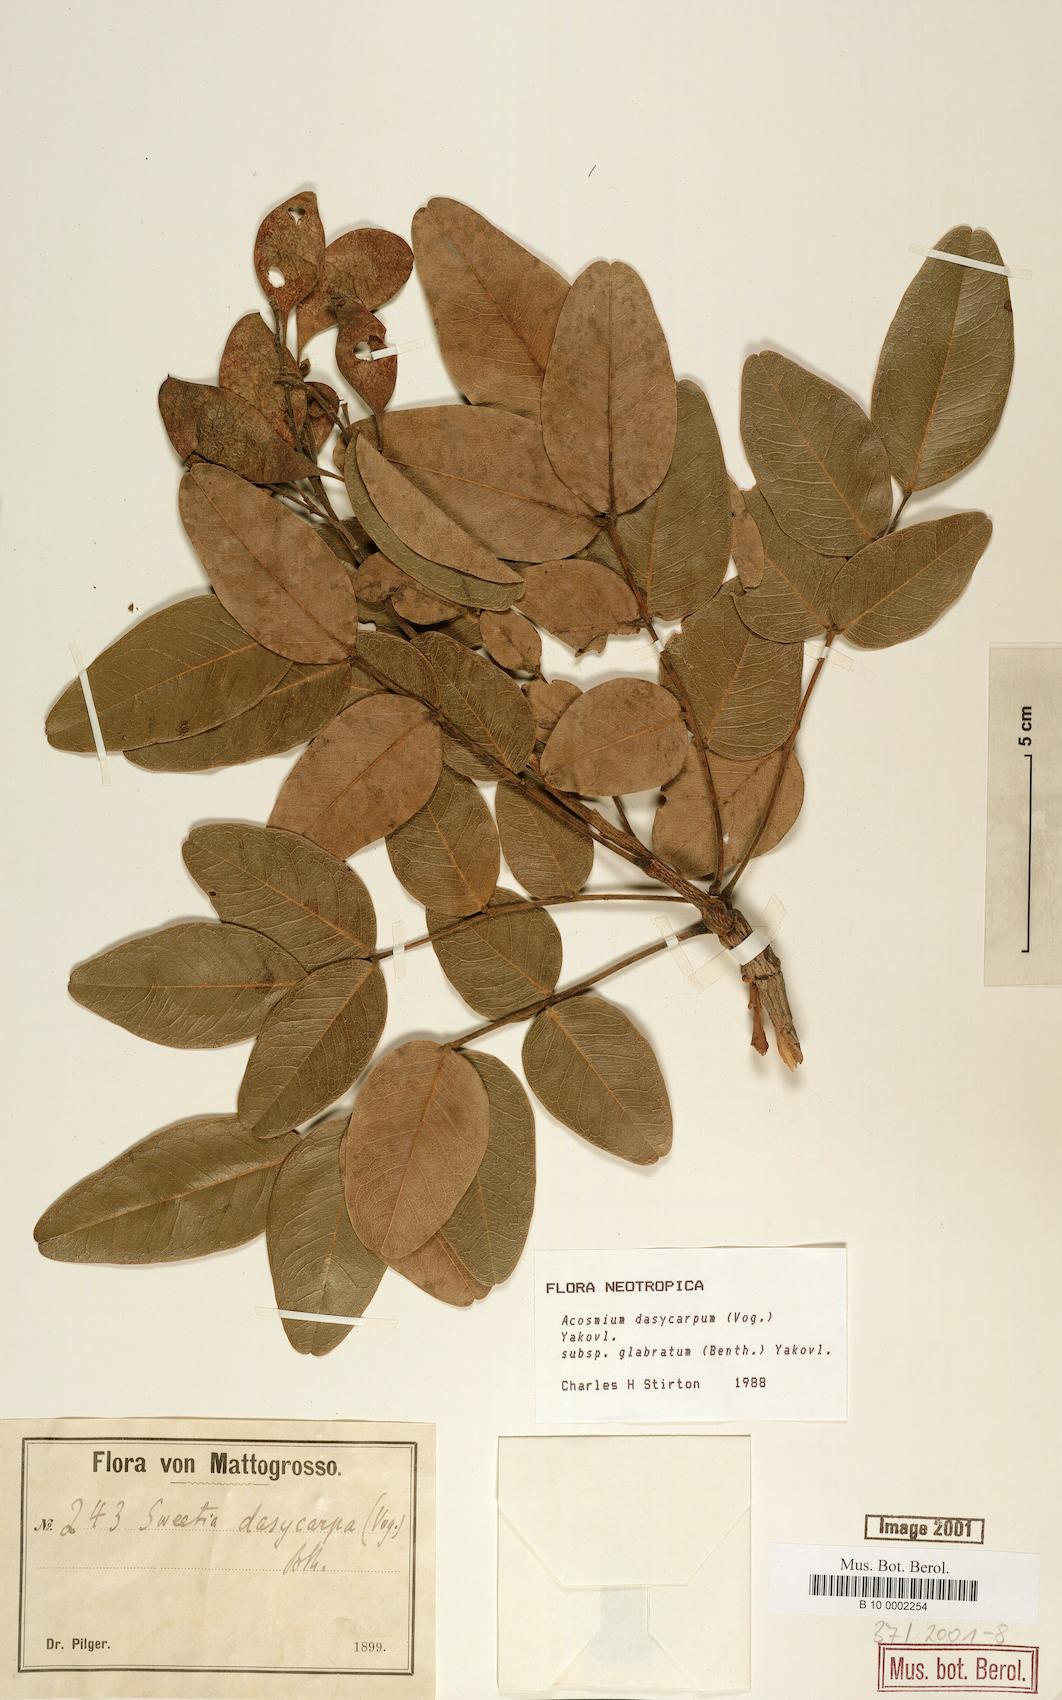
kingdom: Plantae
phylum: Tracheophyta
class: Magnoliopsida
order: Fabales
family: Fabaceae
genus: Leptolobium
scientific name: Leptolobium dasycarpum
